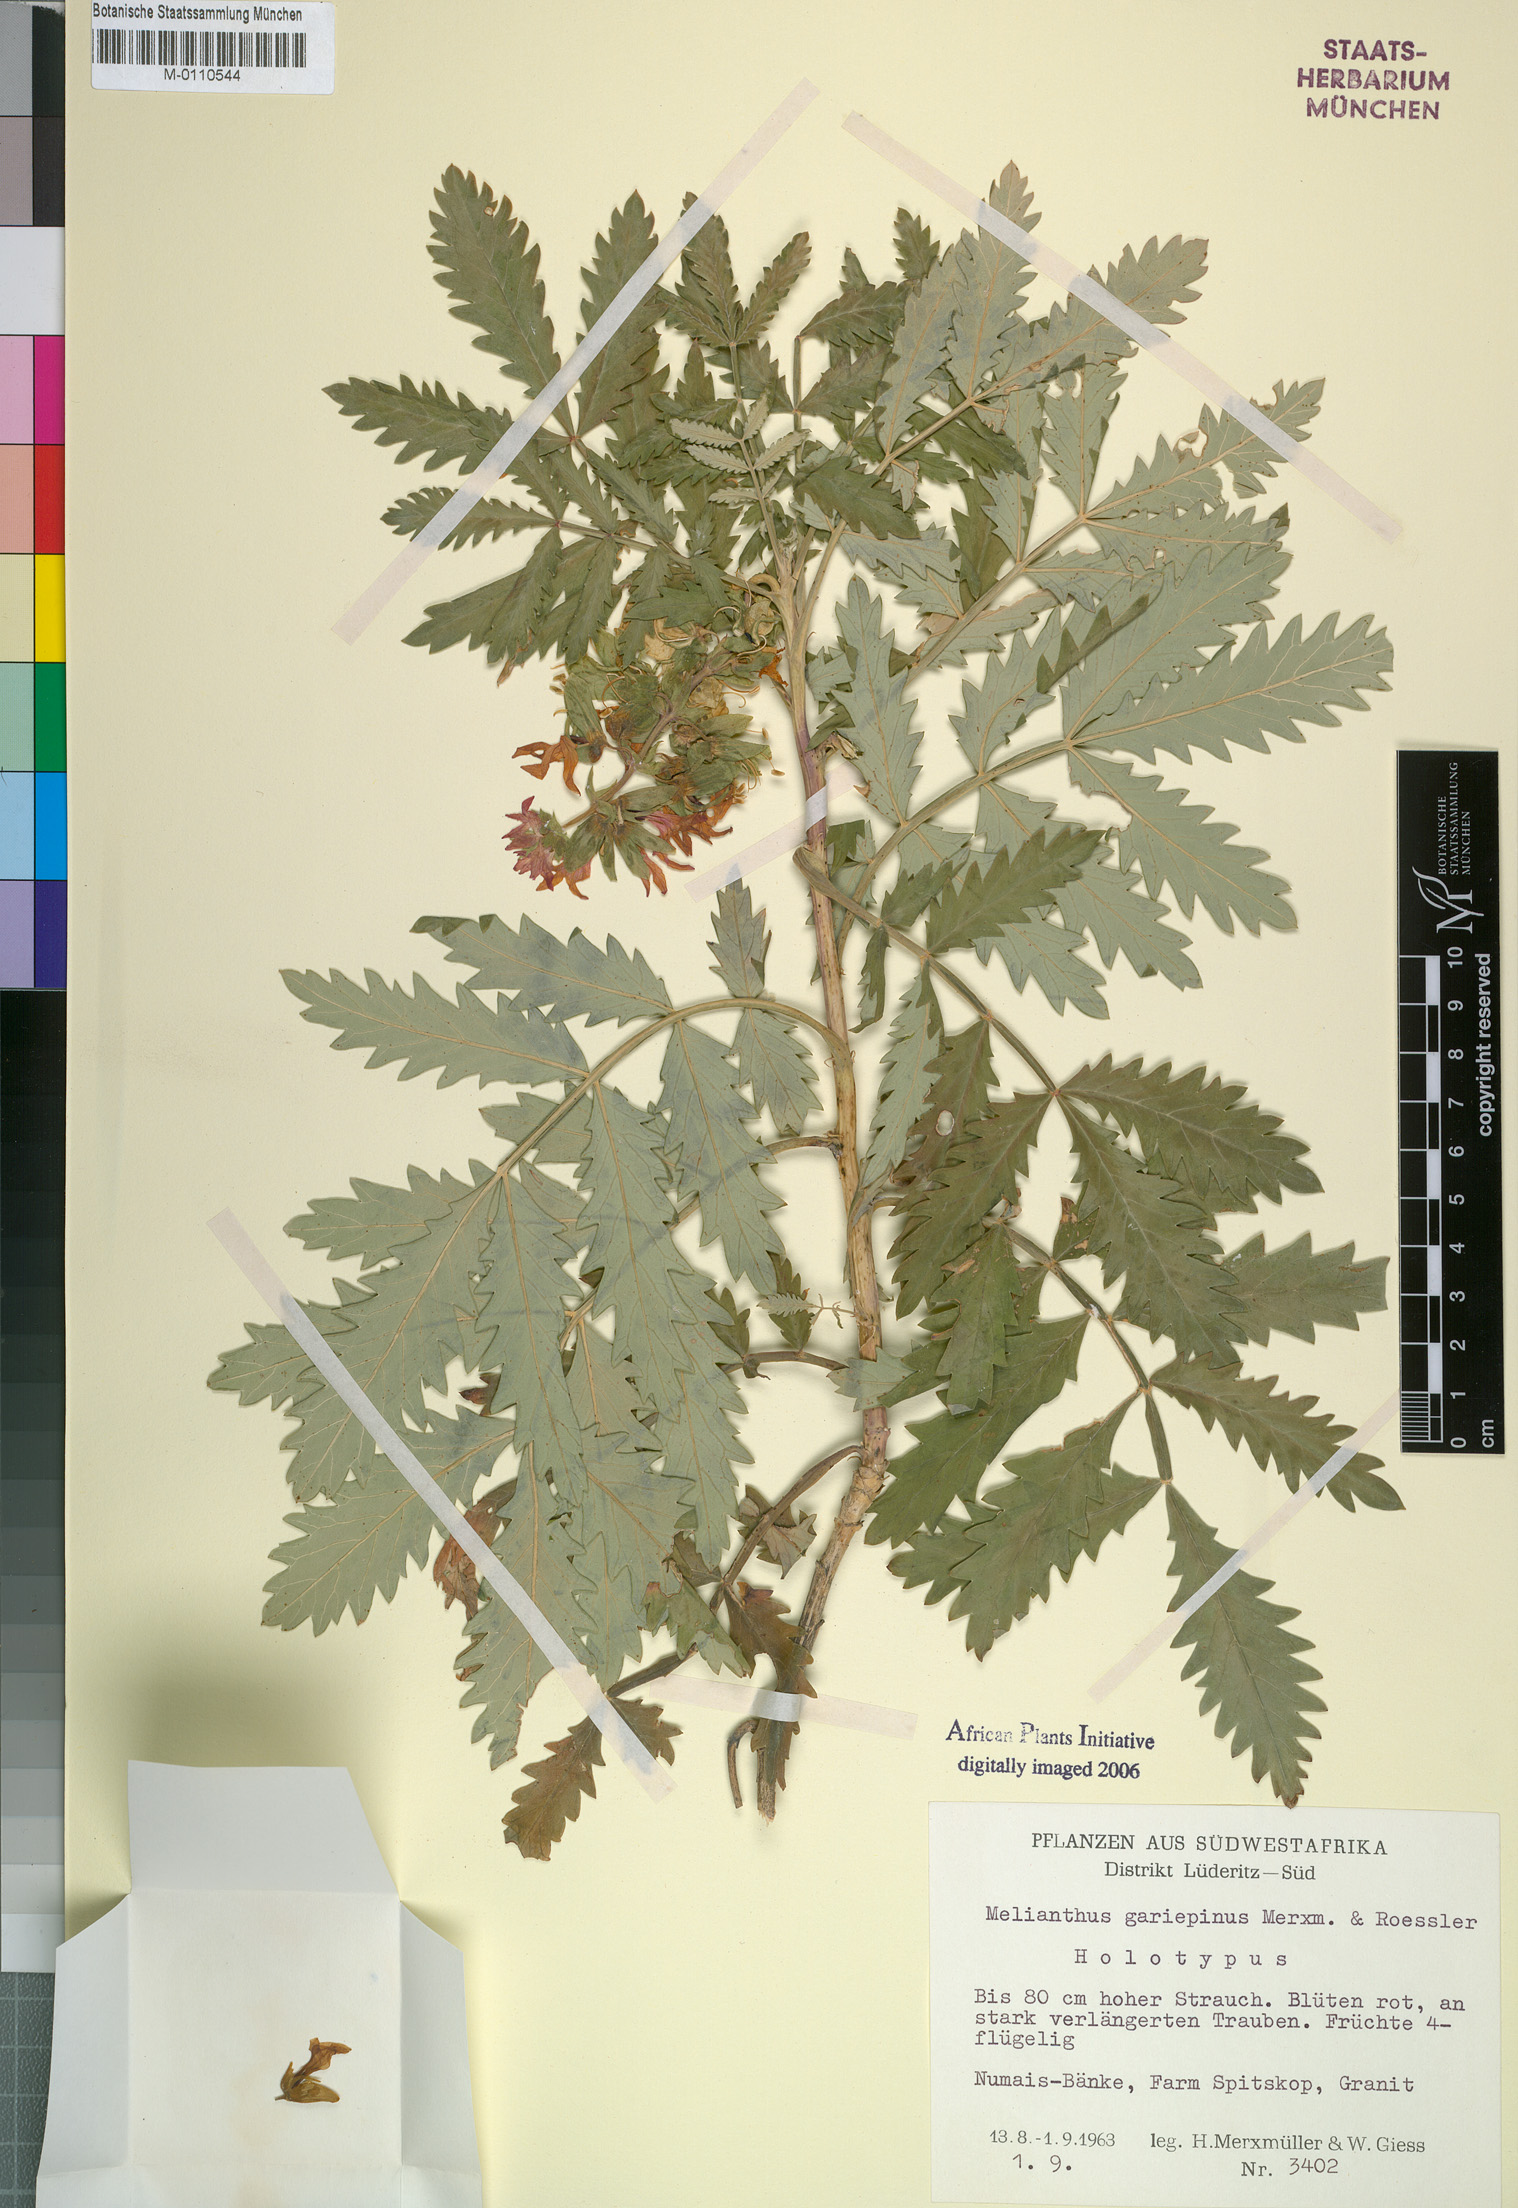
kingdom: Plantae
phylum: Tracheophyta
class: Magnoliopsida
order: Geraniales
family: Melianthaceae
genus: Melianthus
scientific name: Melianthus pectinatus
